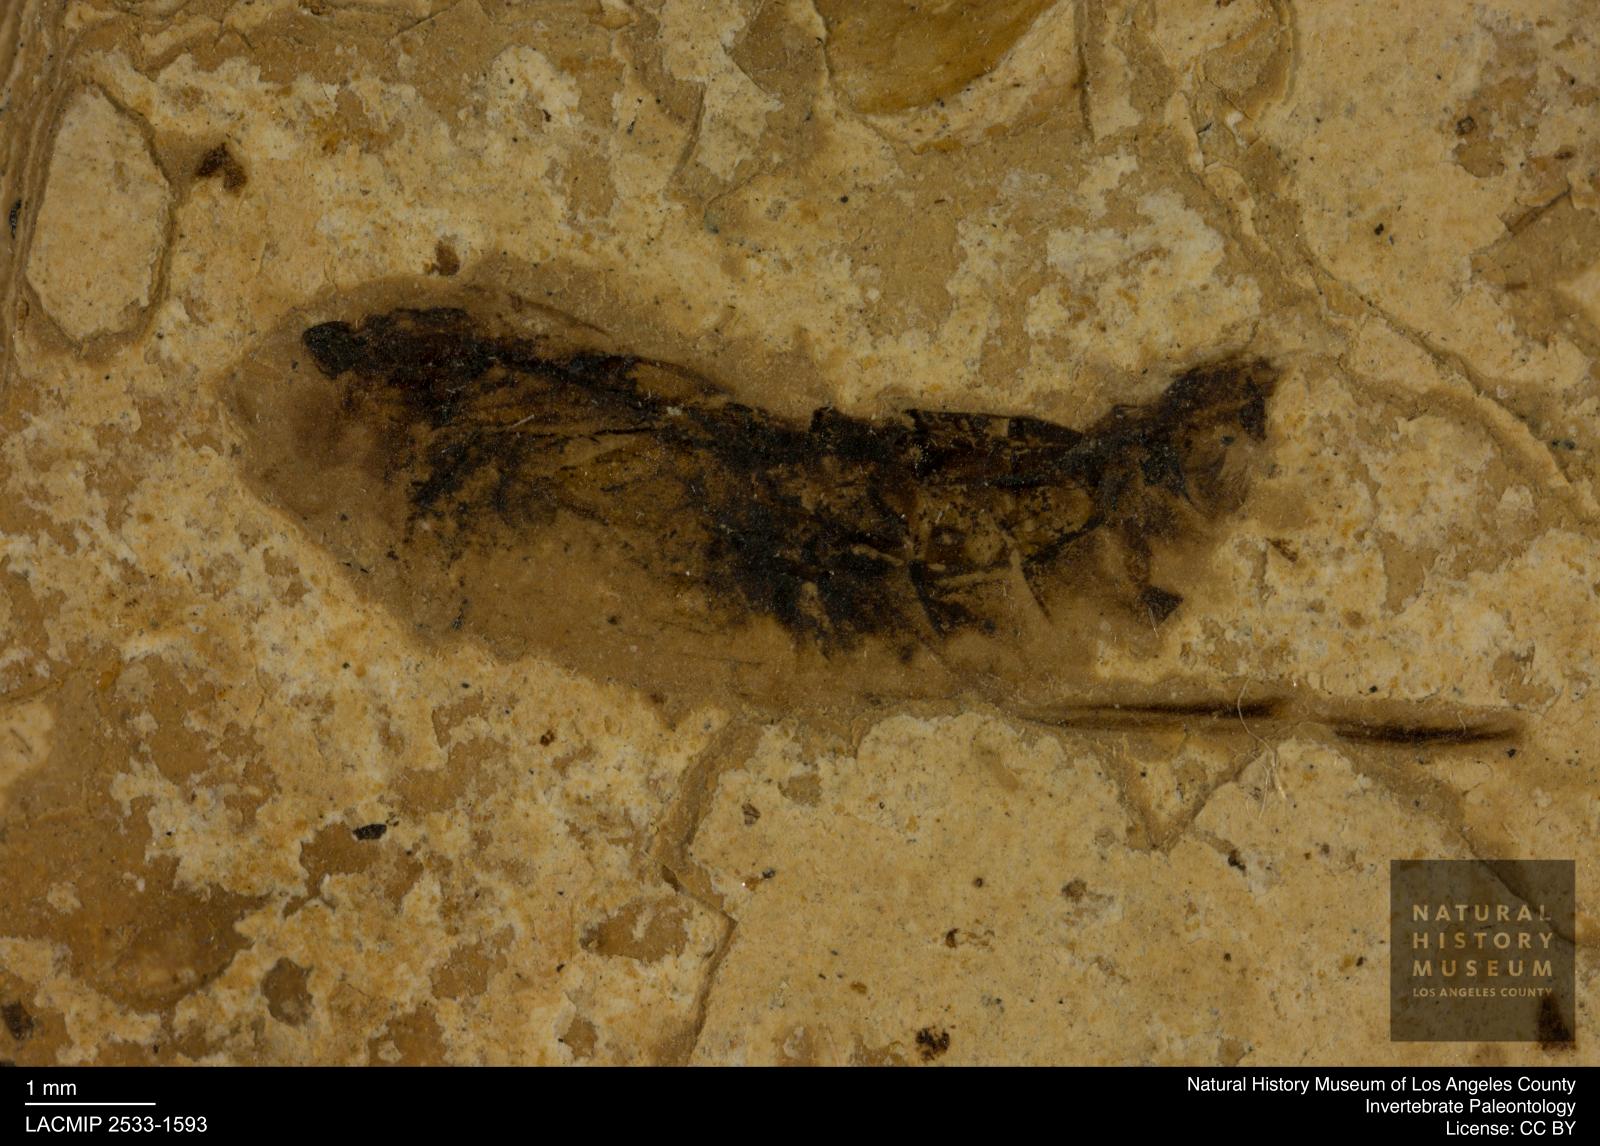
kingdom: Animalia
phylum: Arthropoda
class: Insecta
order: Hemiptera
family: Notonectidae
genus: Notonecta
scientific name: Notonecta
